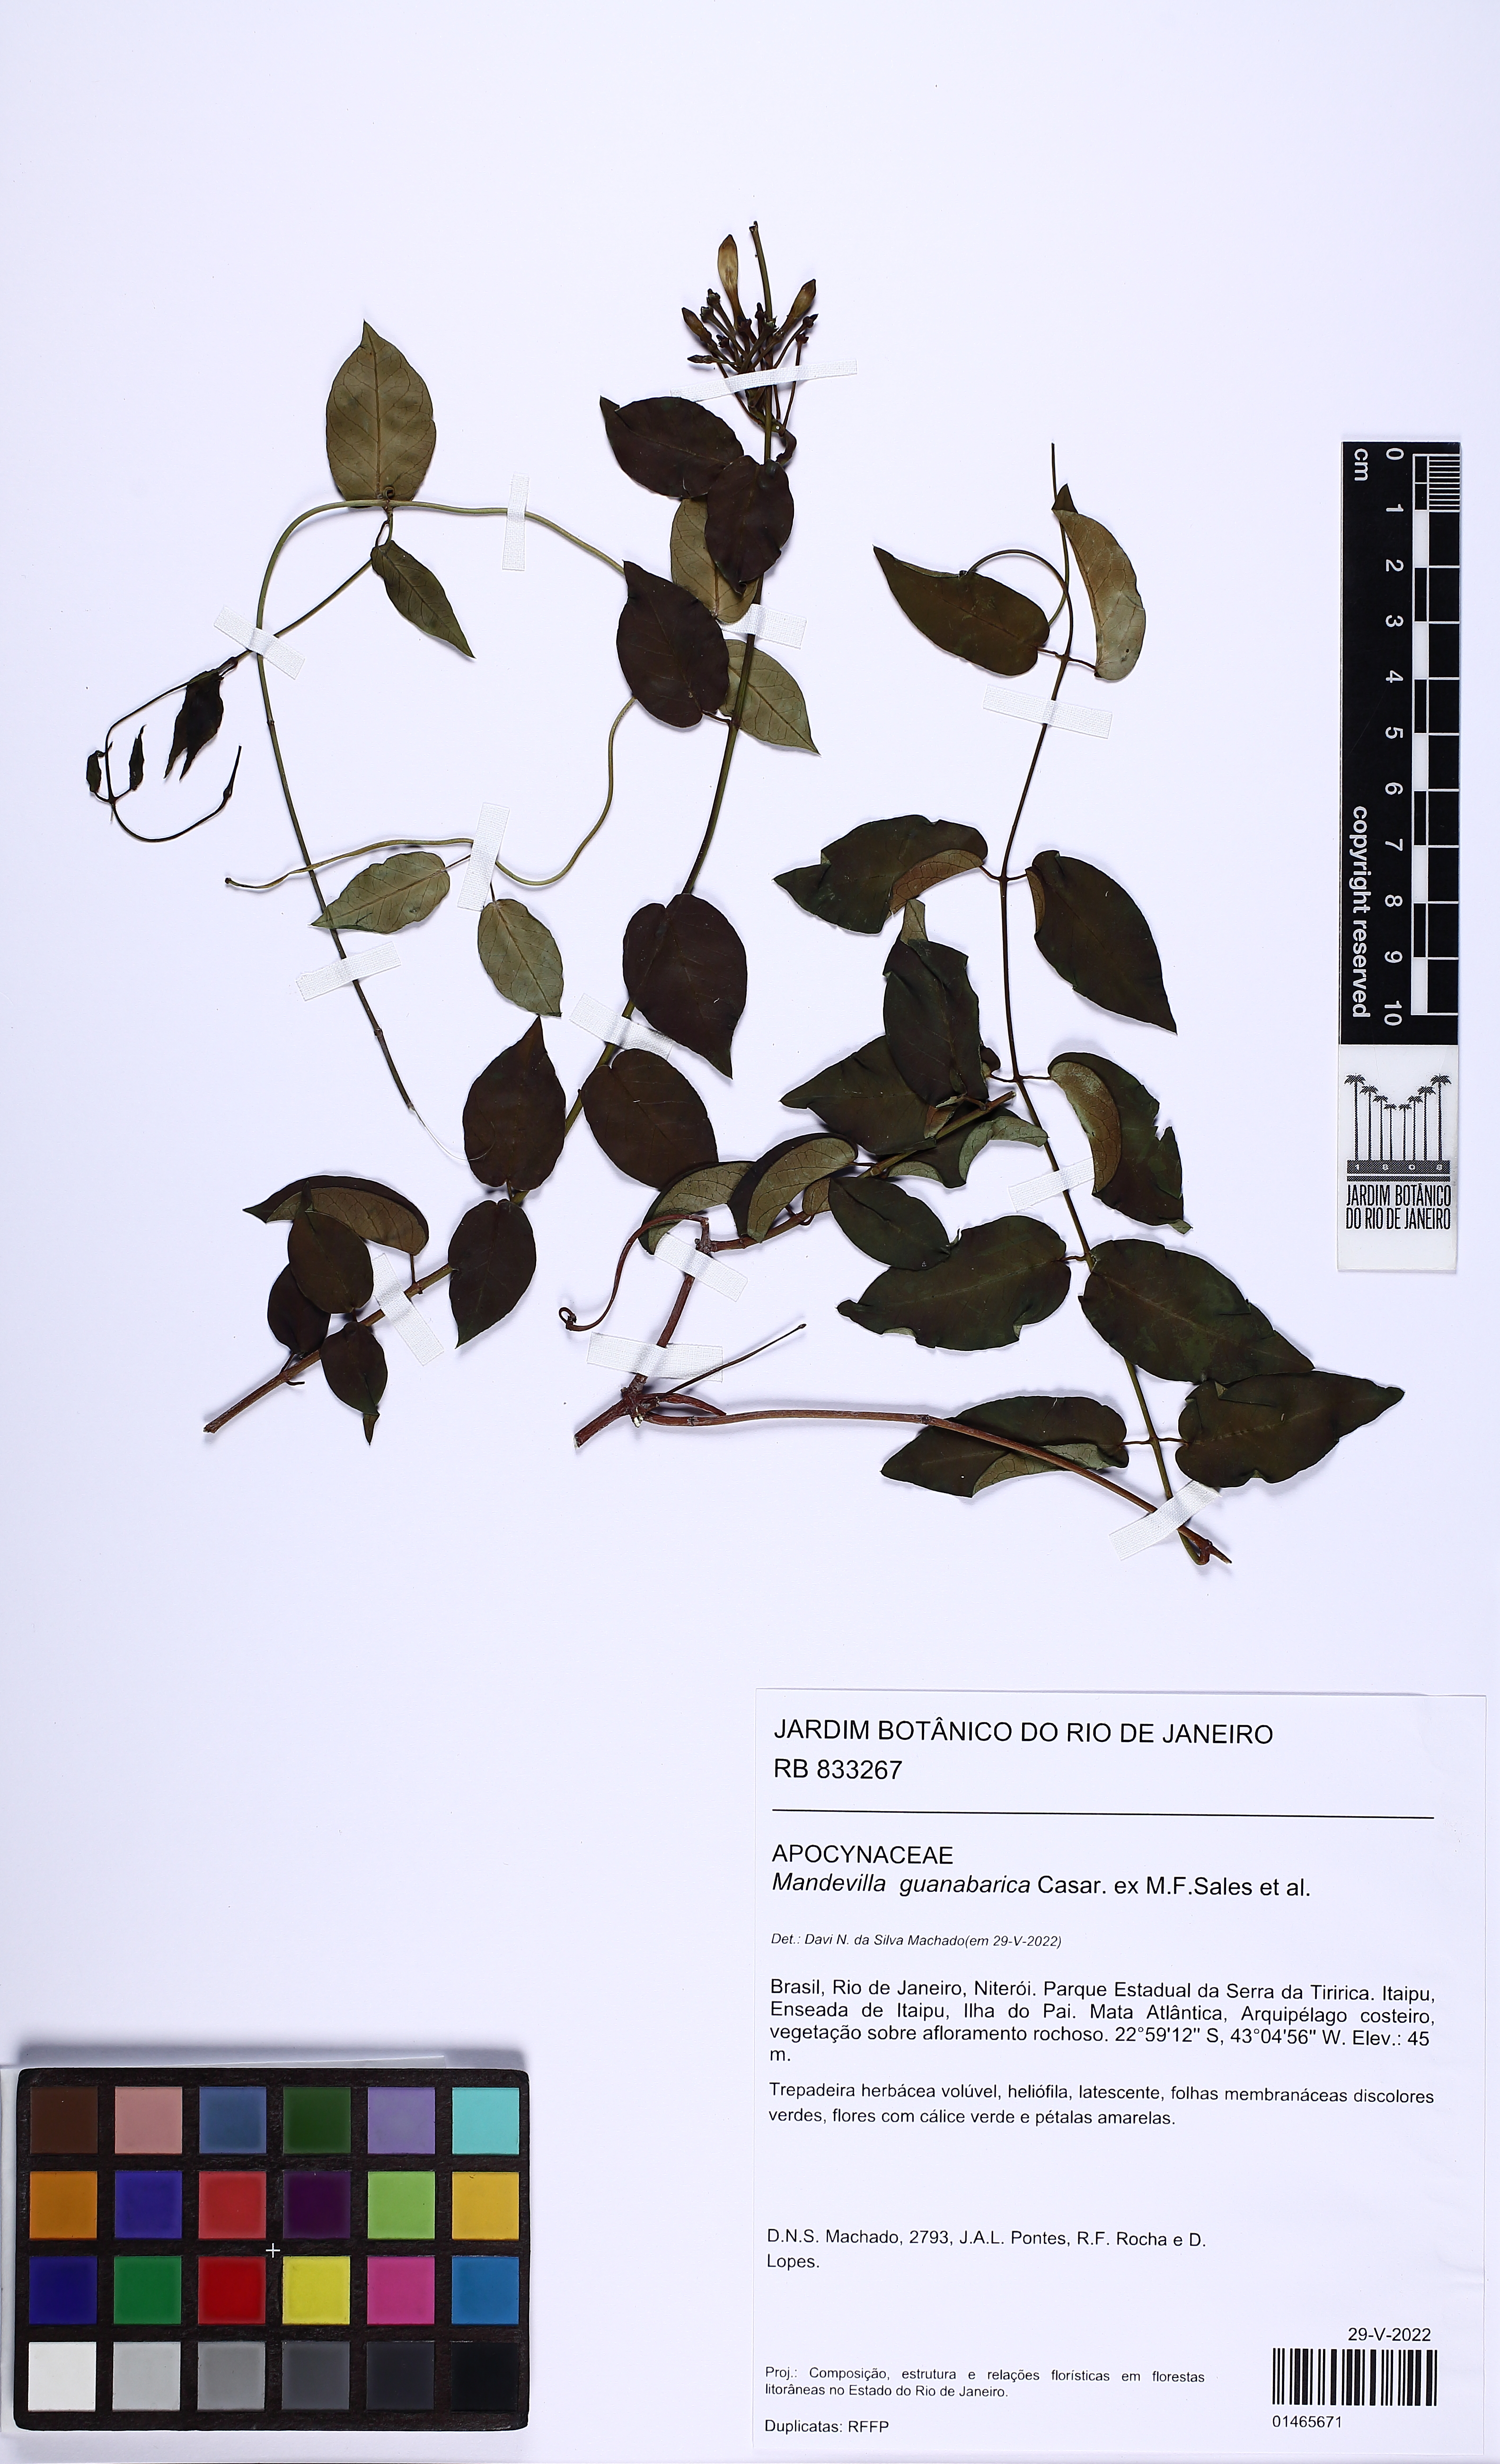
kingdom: Plantae
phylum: Tracheophyta
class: Magnoliopsida
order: Gentianales
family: Apocynaceae
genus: Mandevilla
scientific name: Mandevilla guanabarica
